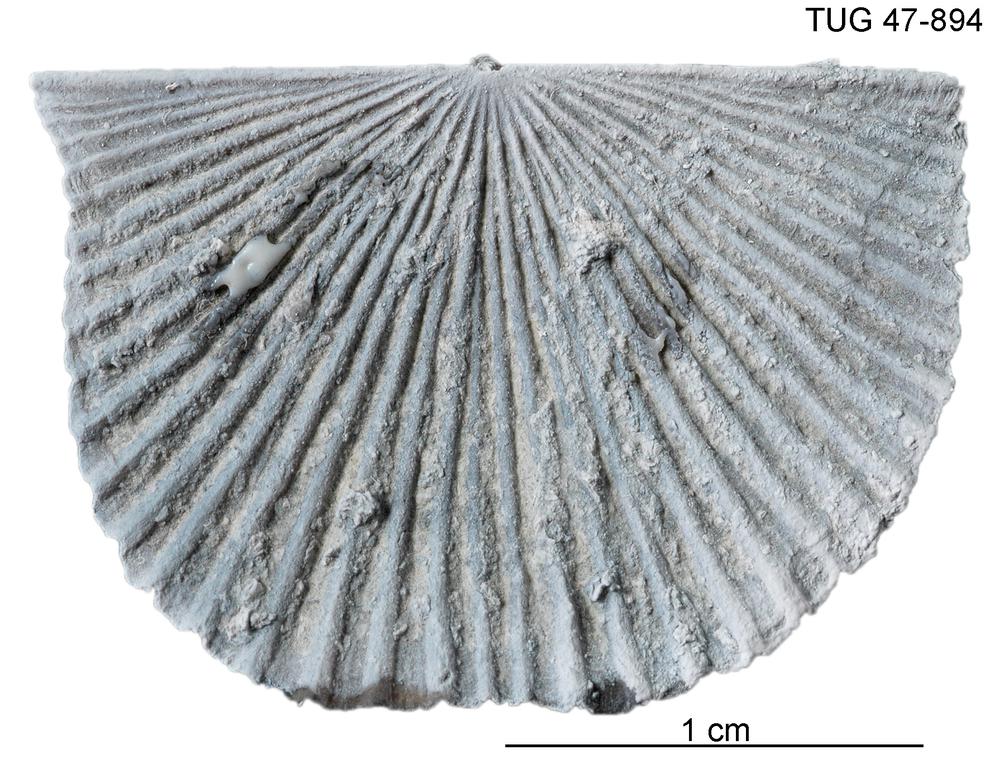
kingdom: Animalia
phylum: Brachiopoda
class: Rhynchonellata
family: Orthidae
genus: Cyrtonotella
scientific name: Cyrtonotella
